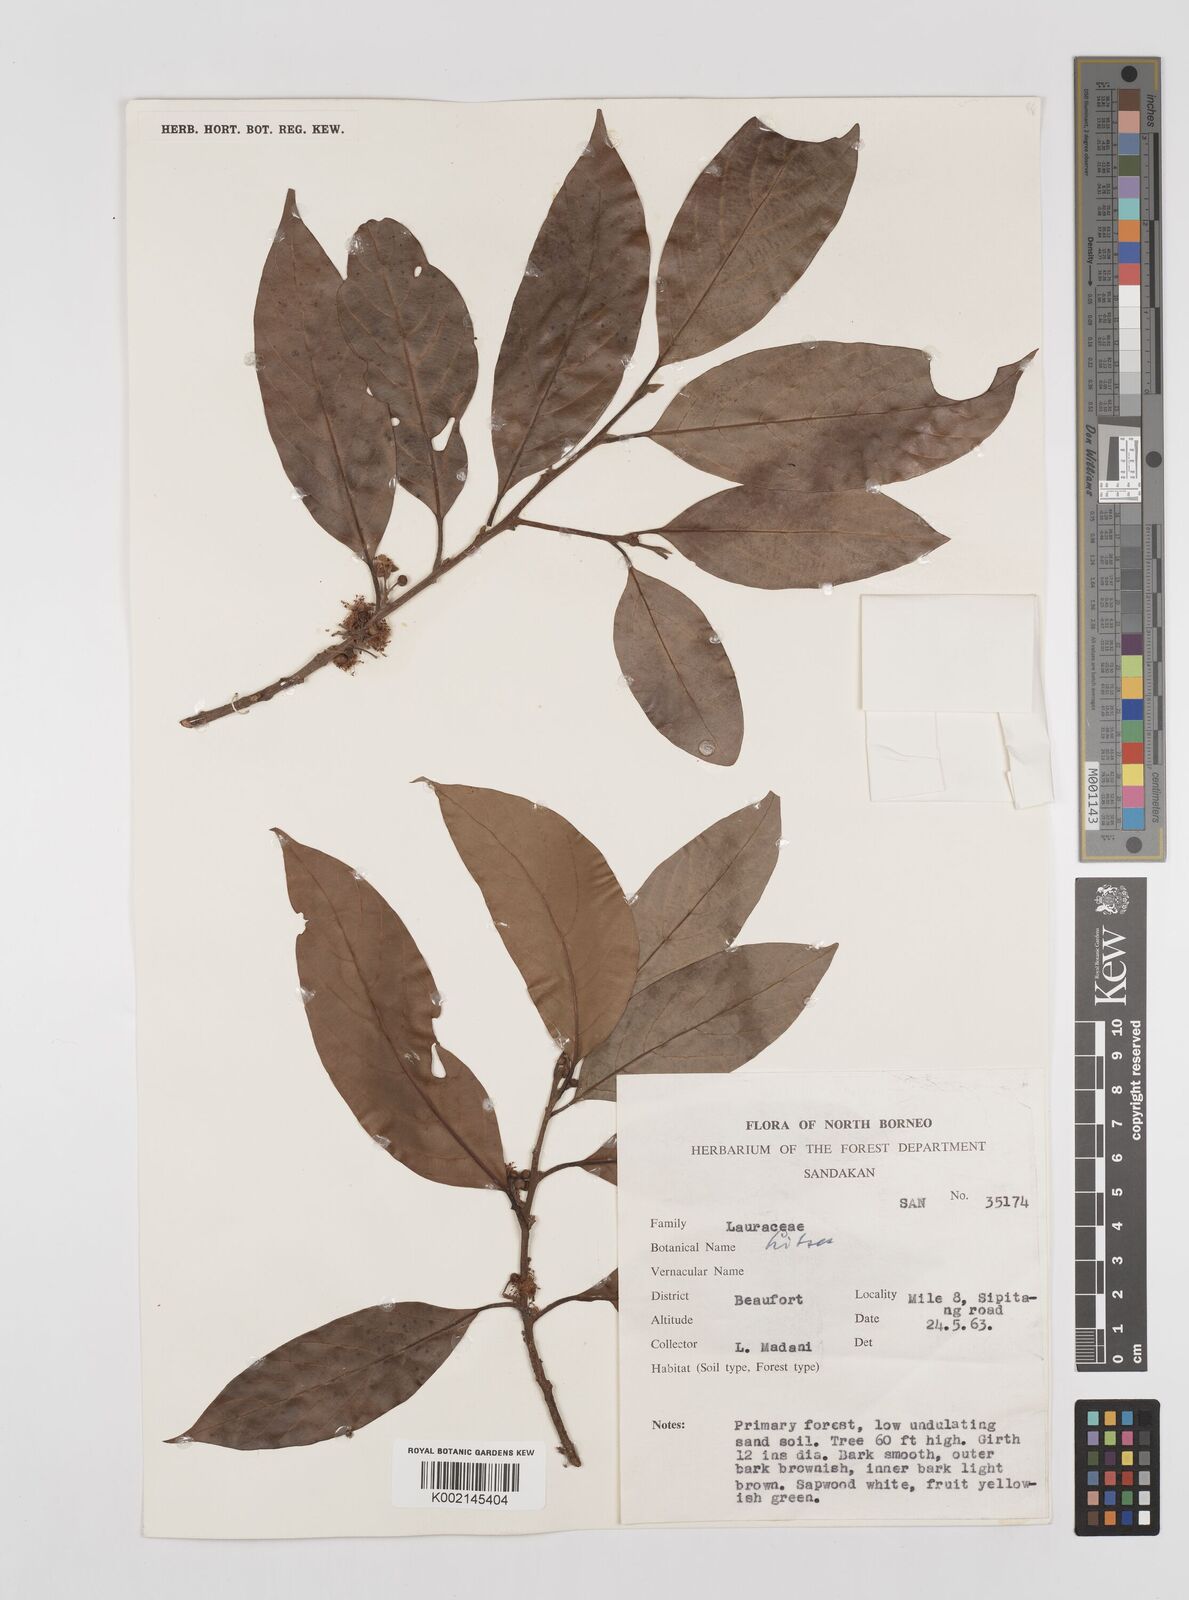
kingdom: Plantae
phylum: Tracheophyta
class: Magnoliopsida
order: Laurales
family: Lauraceae
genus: Litsea
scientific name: Litsea
